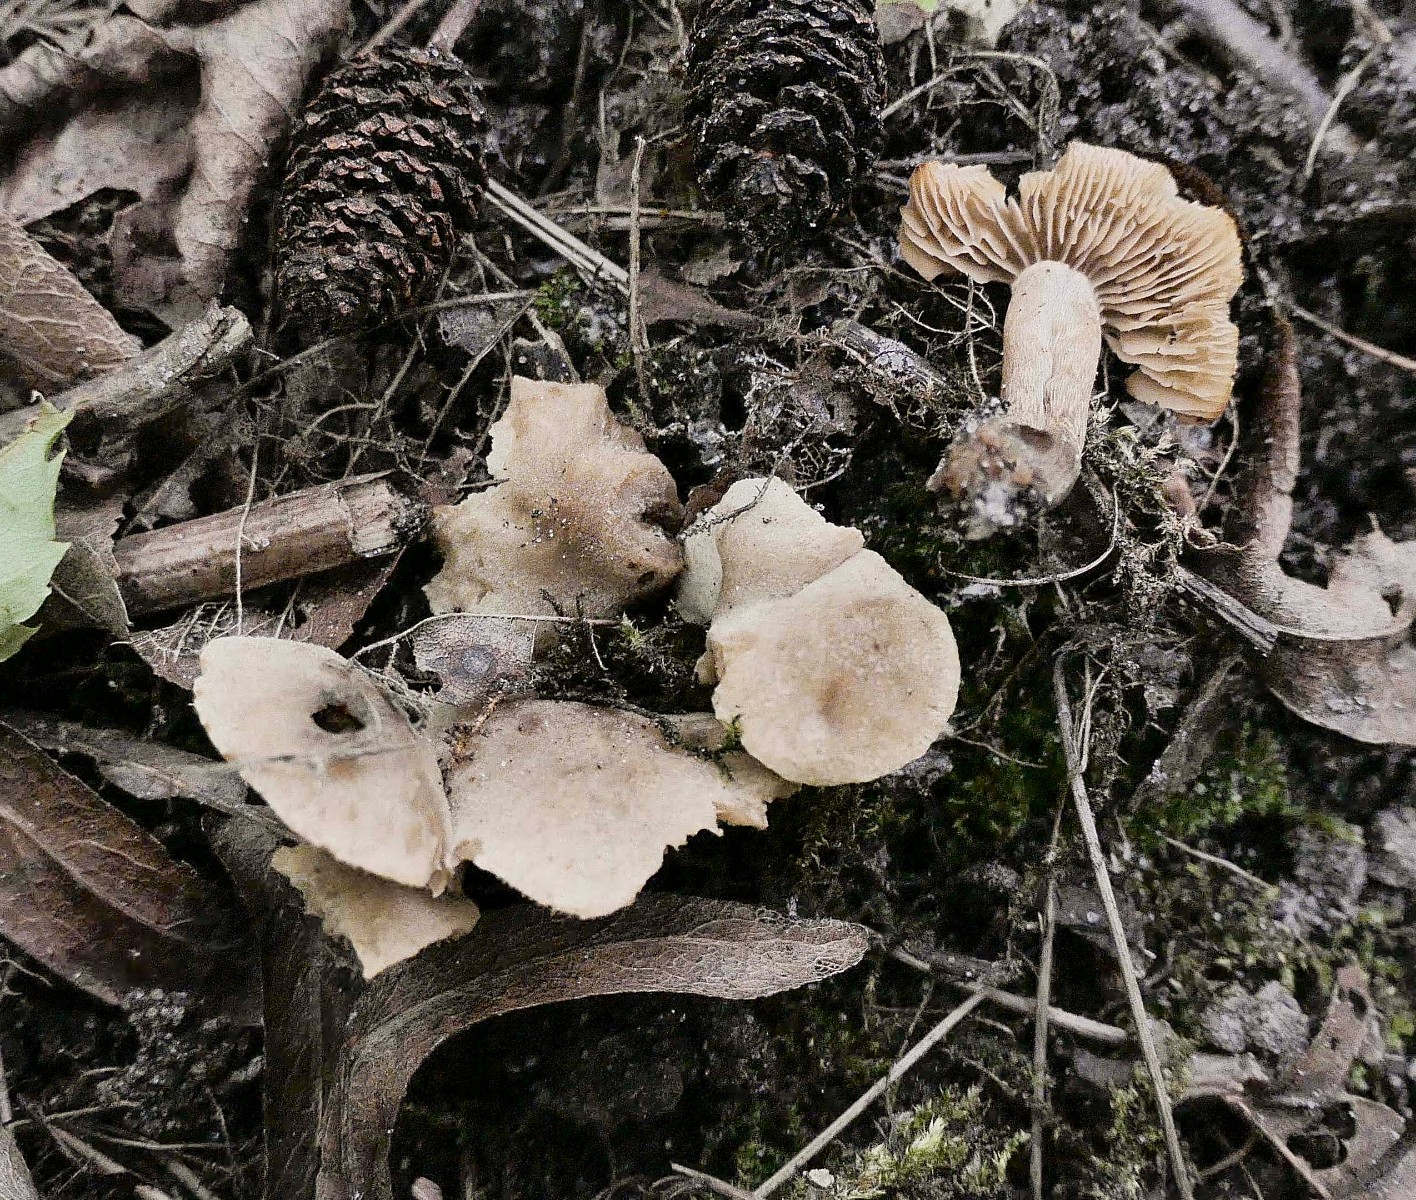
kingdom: Fungi
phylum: Basidiomycota
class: Agaricomycetes
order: Agaricales
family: Hymenogastraceae
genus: Naucoria
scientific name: Naucoria
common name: knaphat
